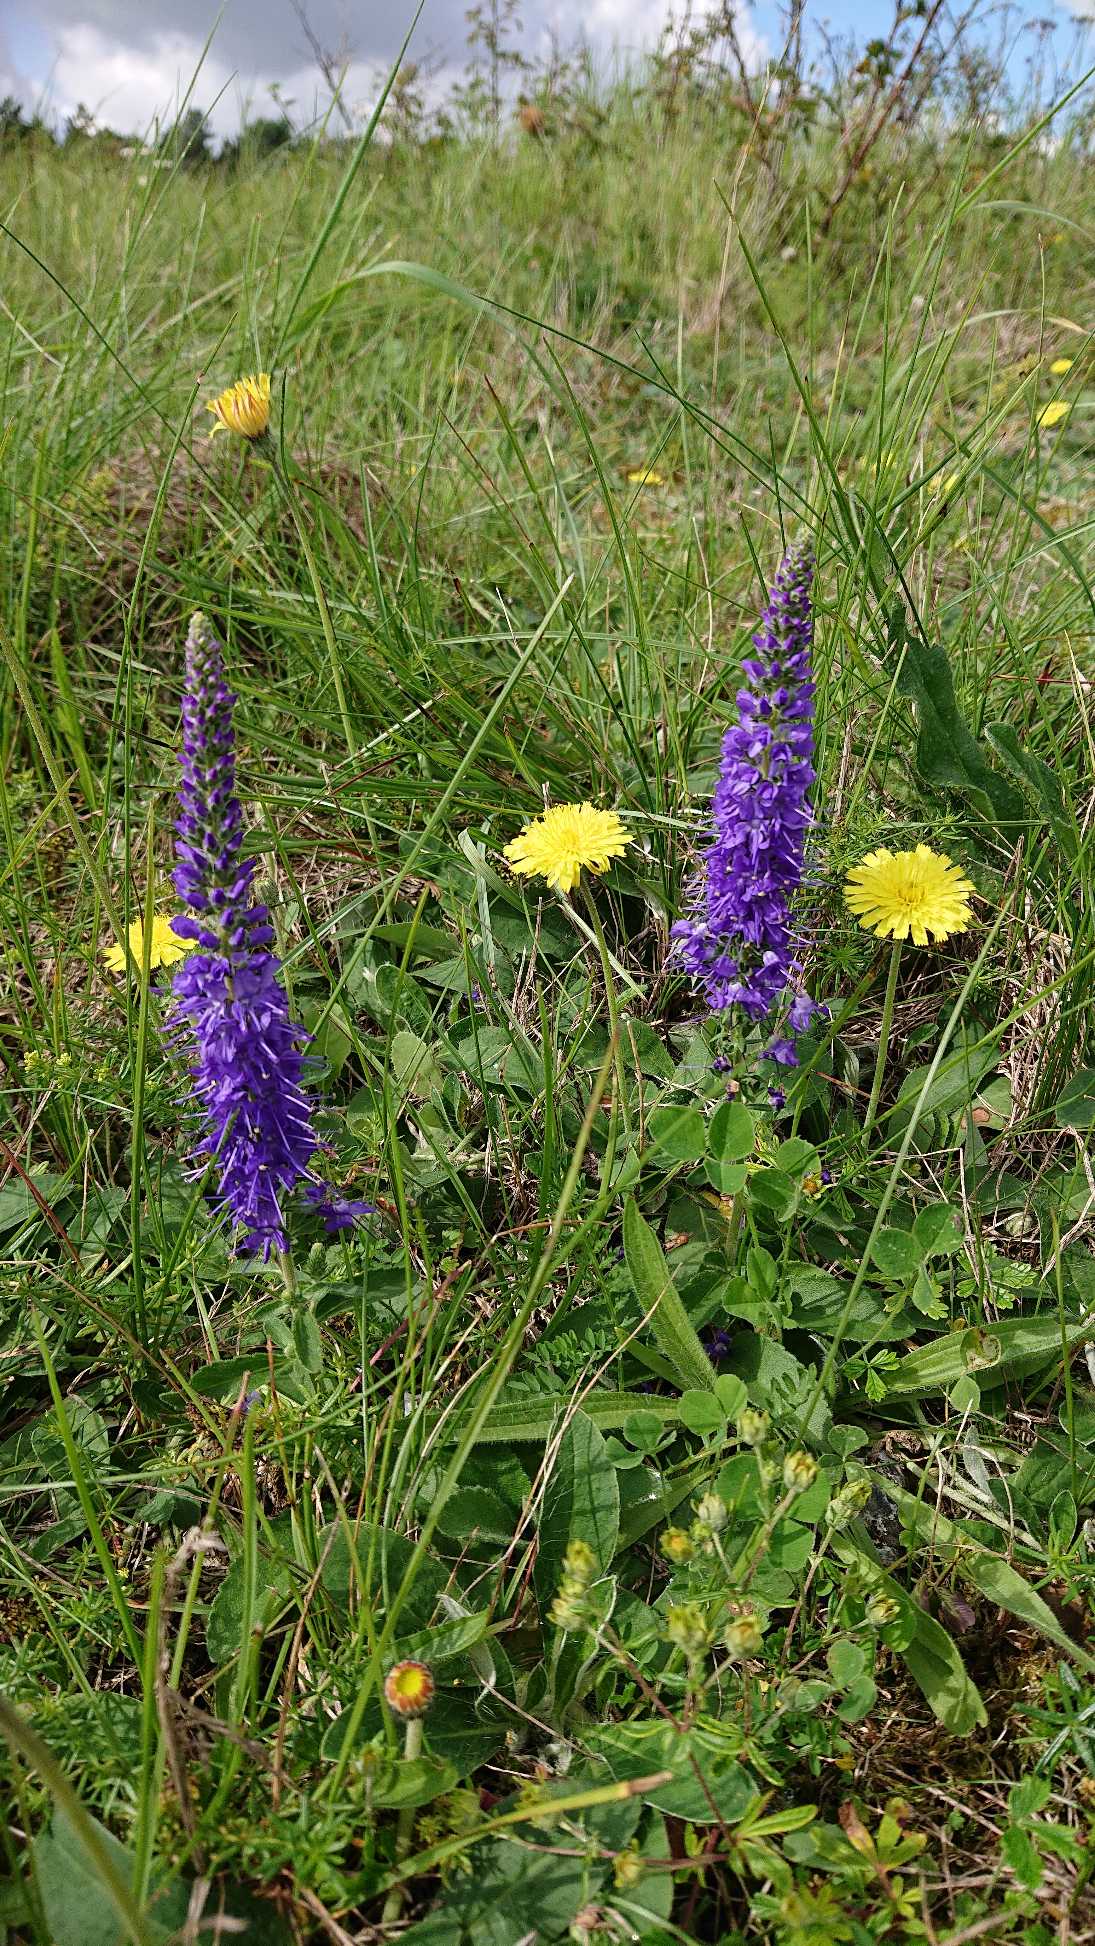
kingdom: Plantae
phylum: Tracheophyta
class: Magnoliopsida
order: Lamiales
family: Plantaginaceae
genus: Veronica
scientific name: Veronica spicata
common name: Aks-ærenpris
